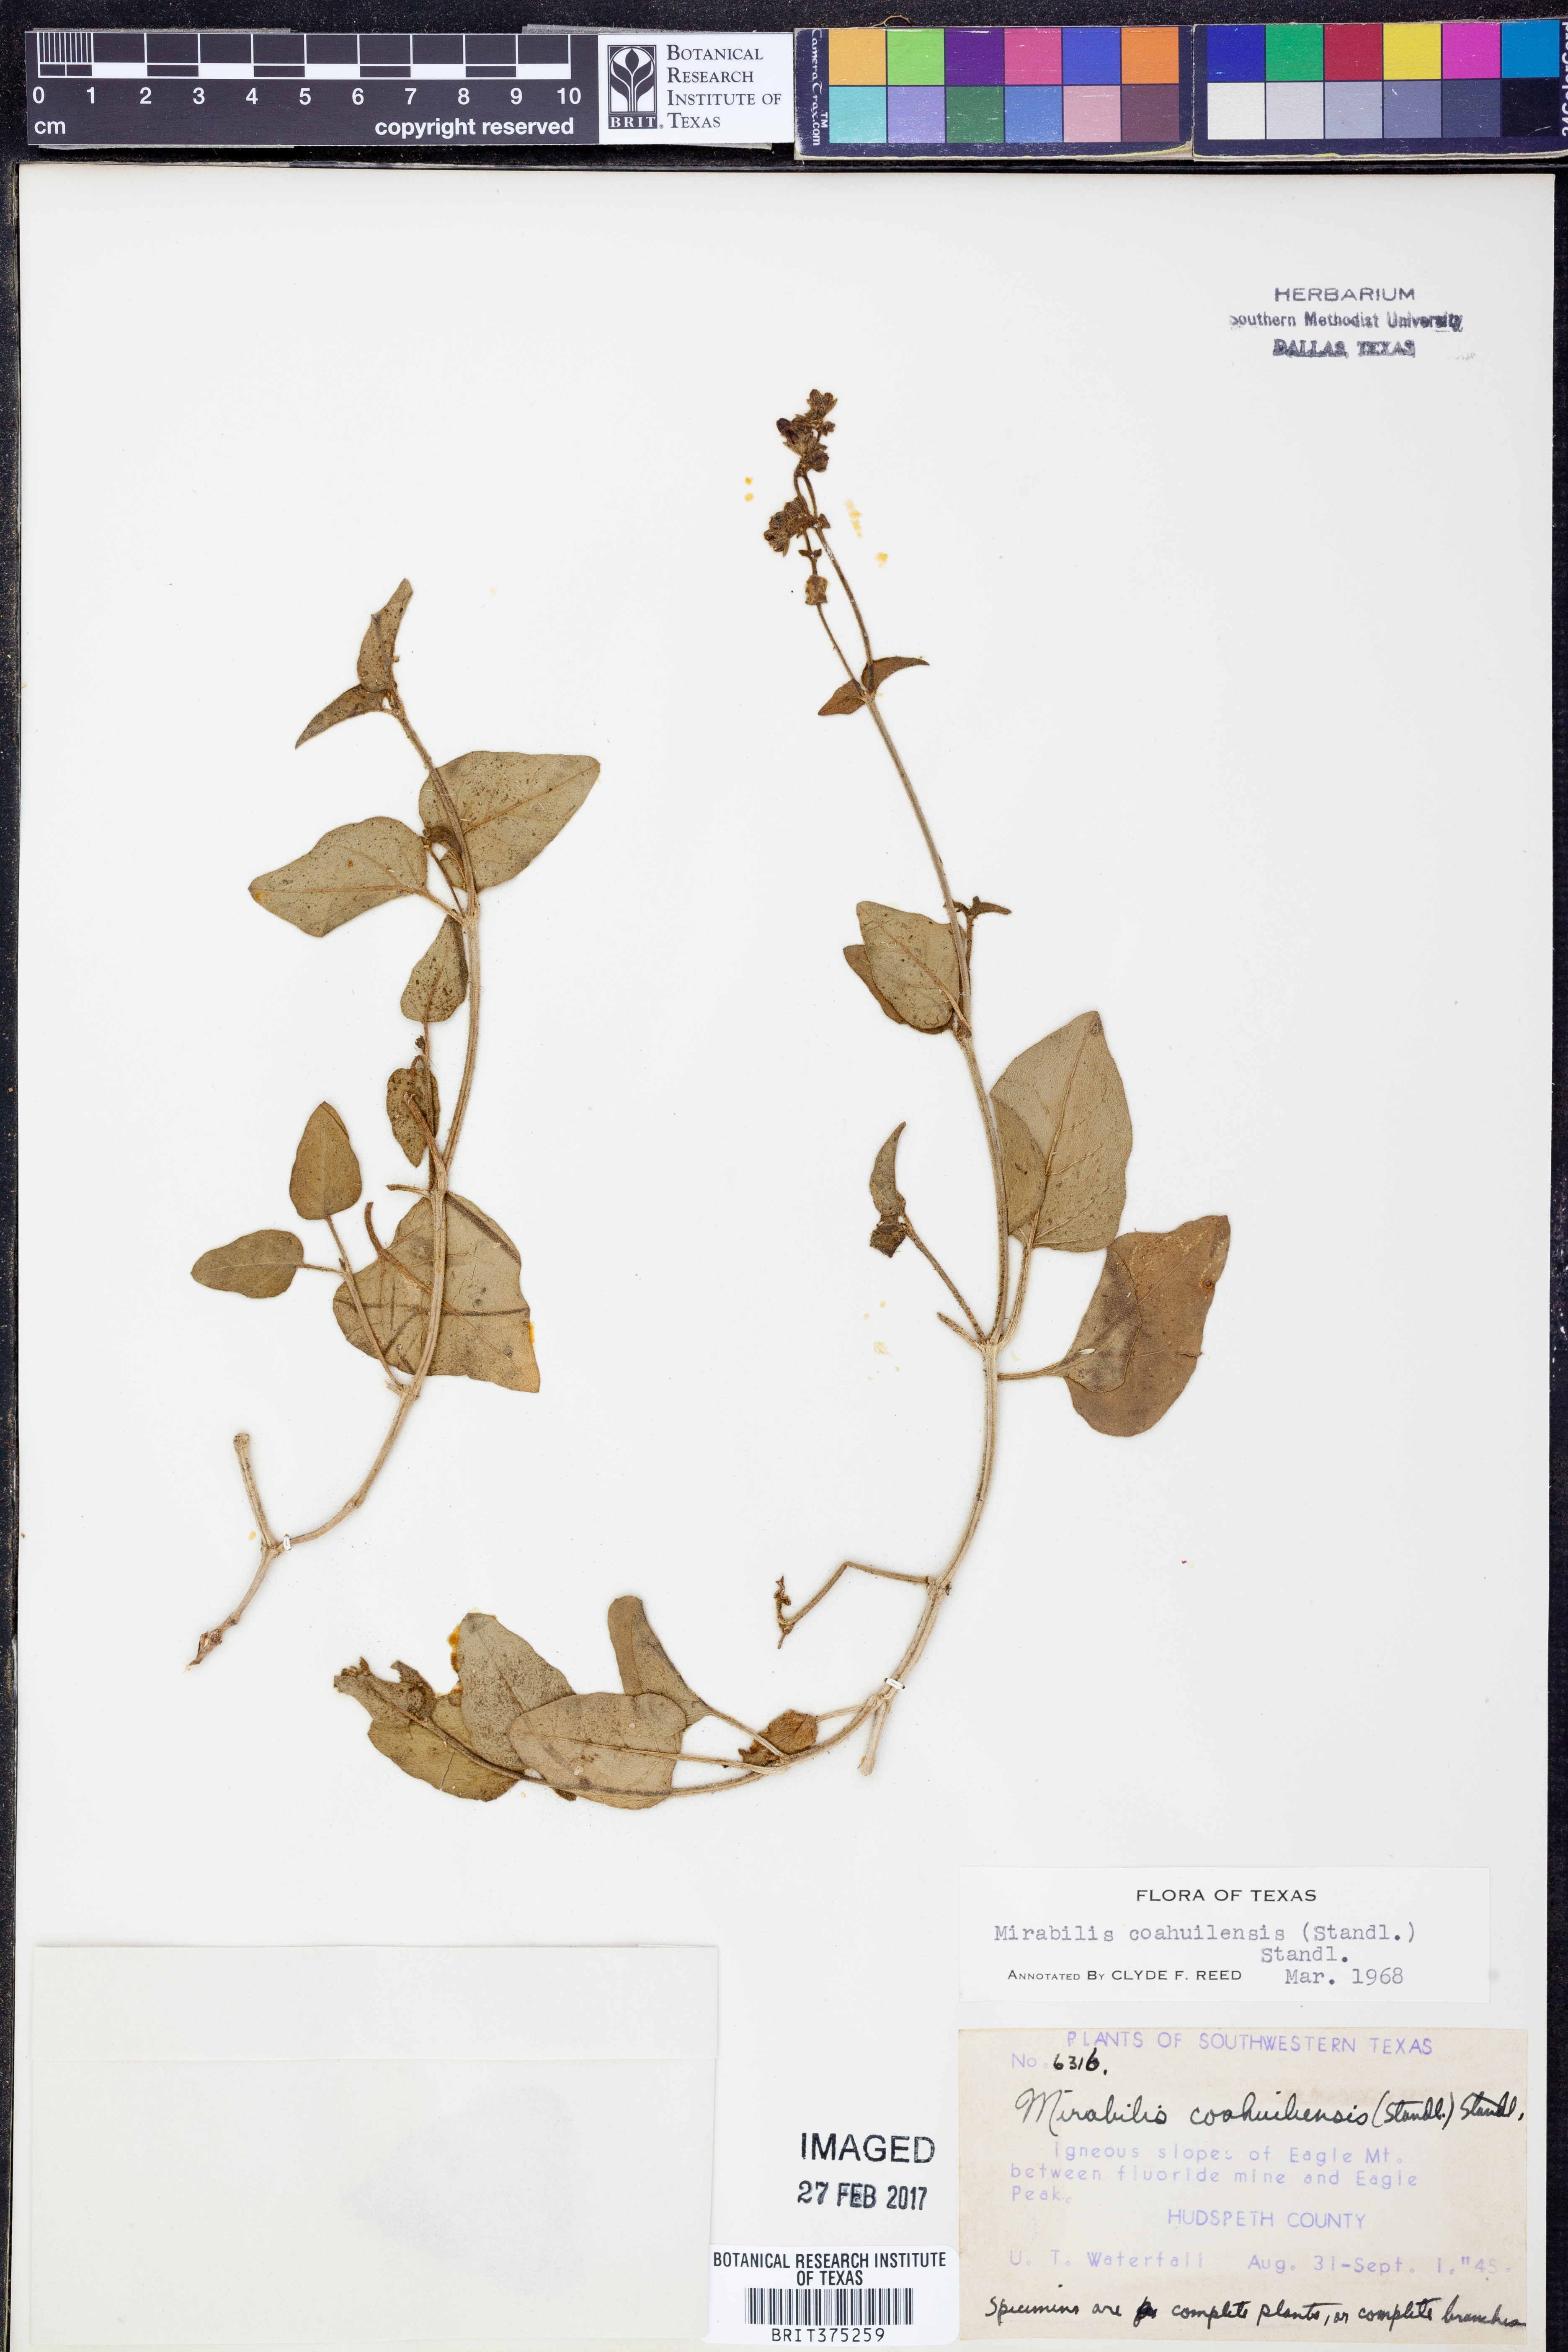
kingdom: Plantae
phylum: Tracheophyta
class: Magnoliopsida
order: Caryophyllales
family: Nyctaginaceae
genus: Mirabilis
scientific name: Mirabilis albida
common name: Hairy four-o'clock
